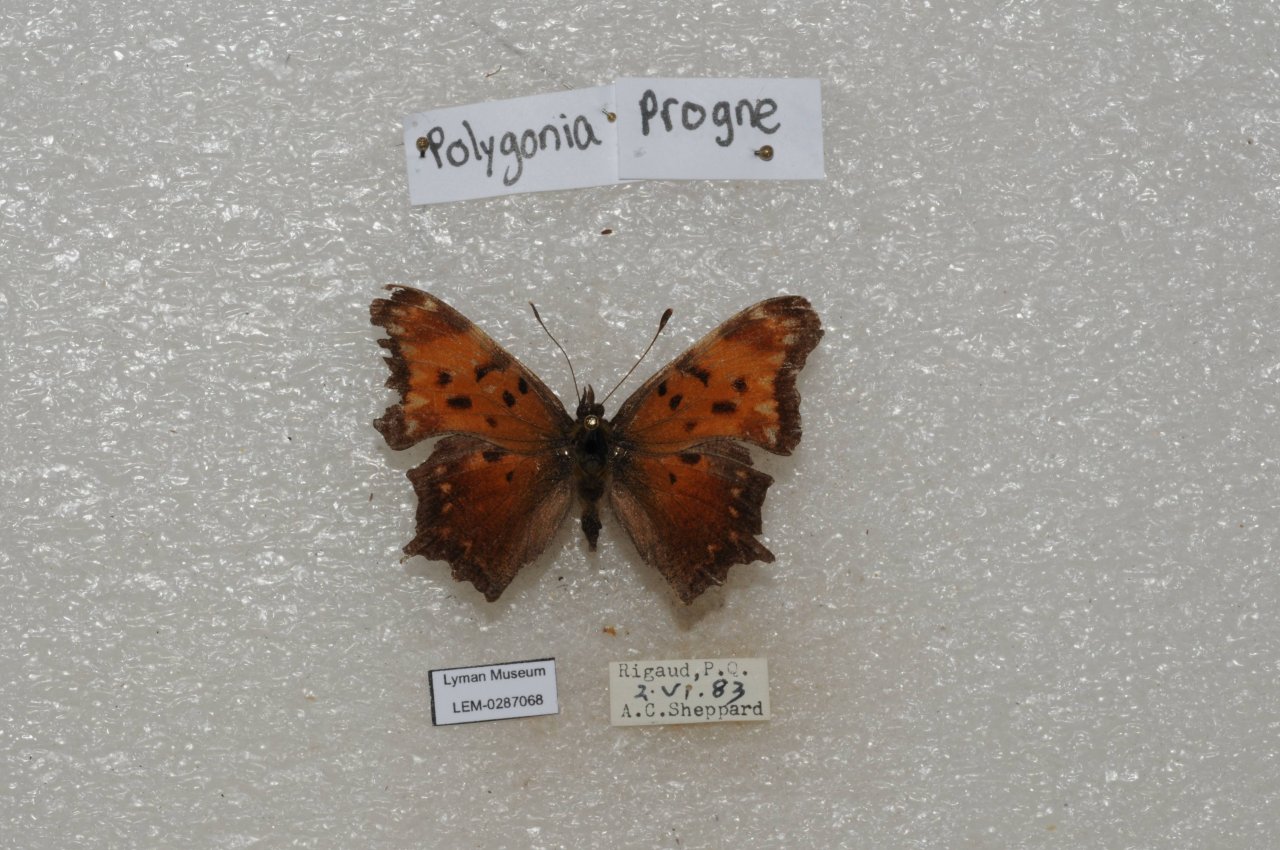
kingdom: Animalia
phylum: Arthropoda
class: Insecta
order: Lepidoptera
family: Nymphalidae
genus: Polygonia
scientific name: Polygonia progne
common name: Gray Comma
